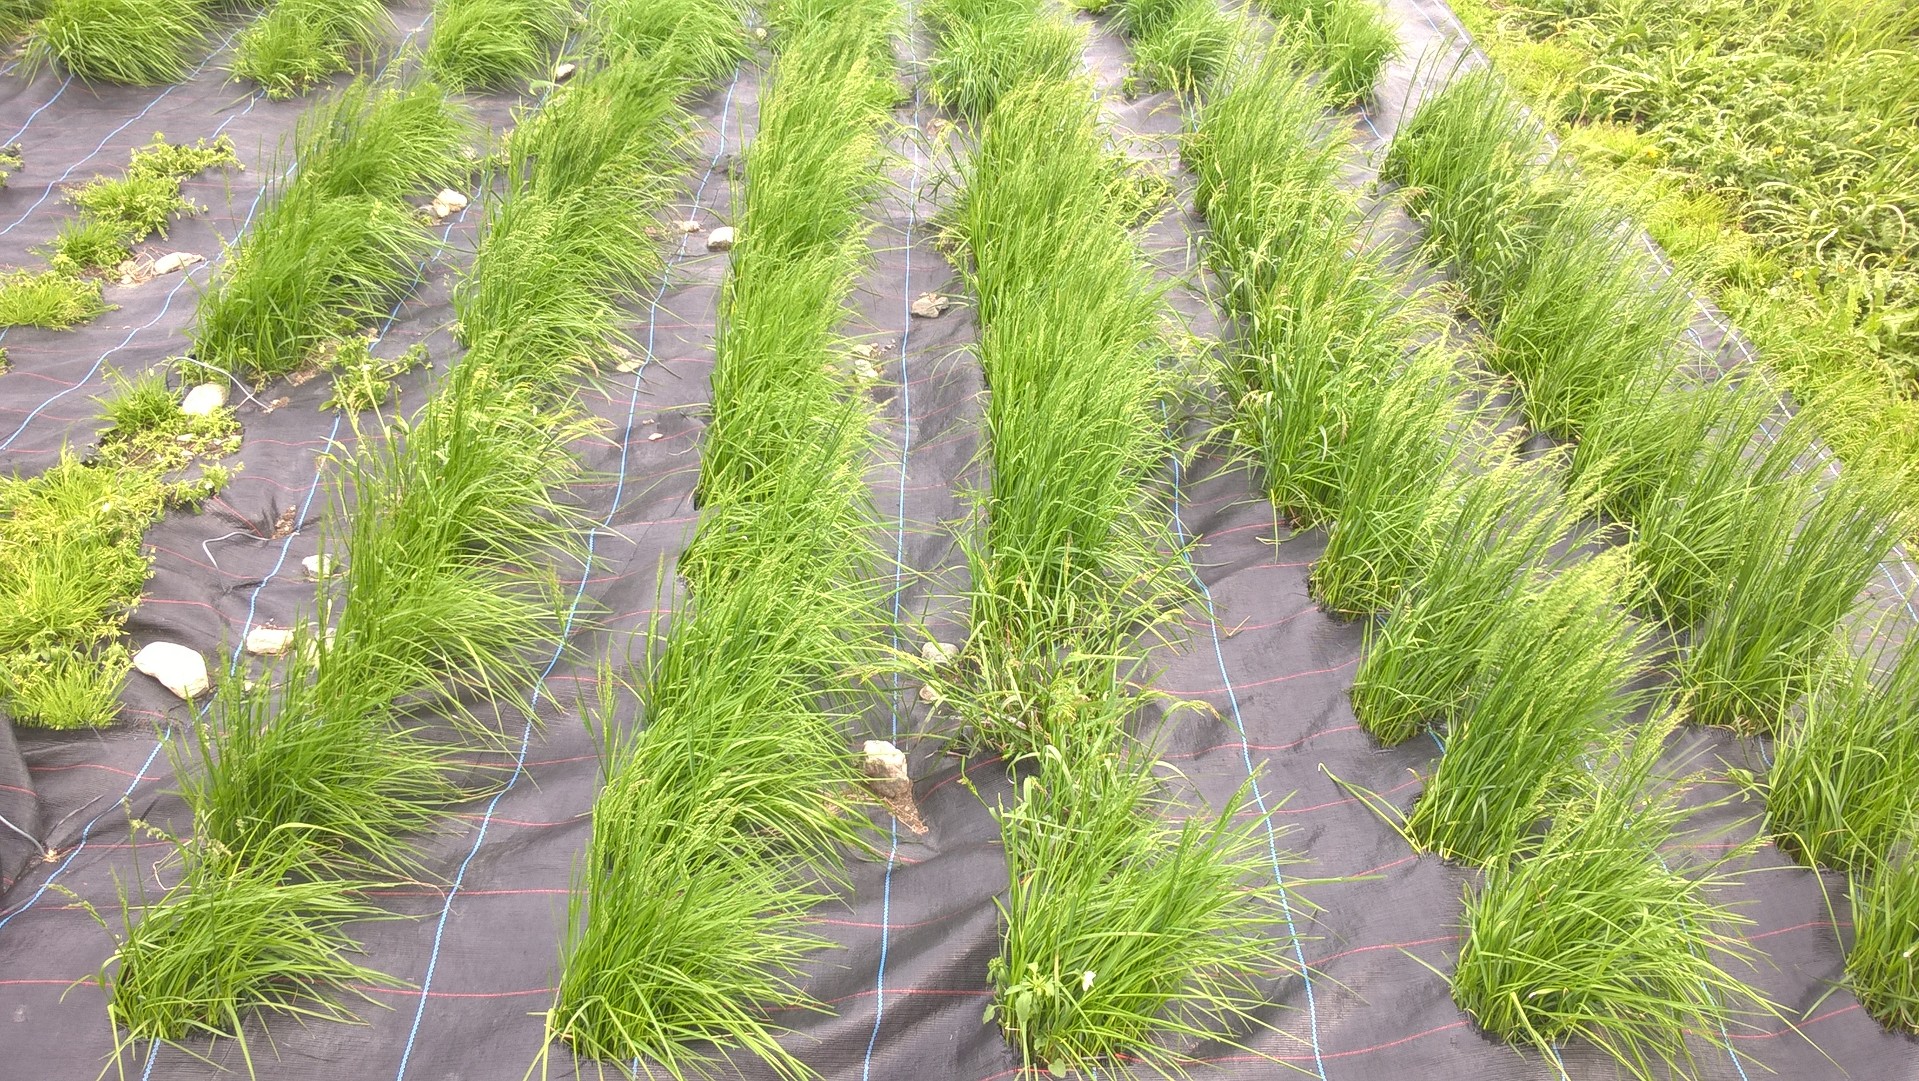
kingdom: Plantae
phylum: Tracheophyta
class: Liliopsida
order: Poales
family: Poaceae
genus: Poa
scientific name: Poa pratensis
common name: Kentucky bluegrass
